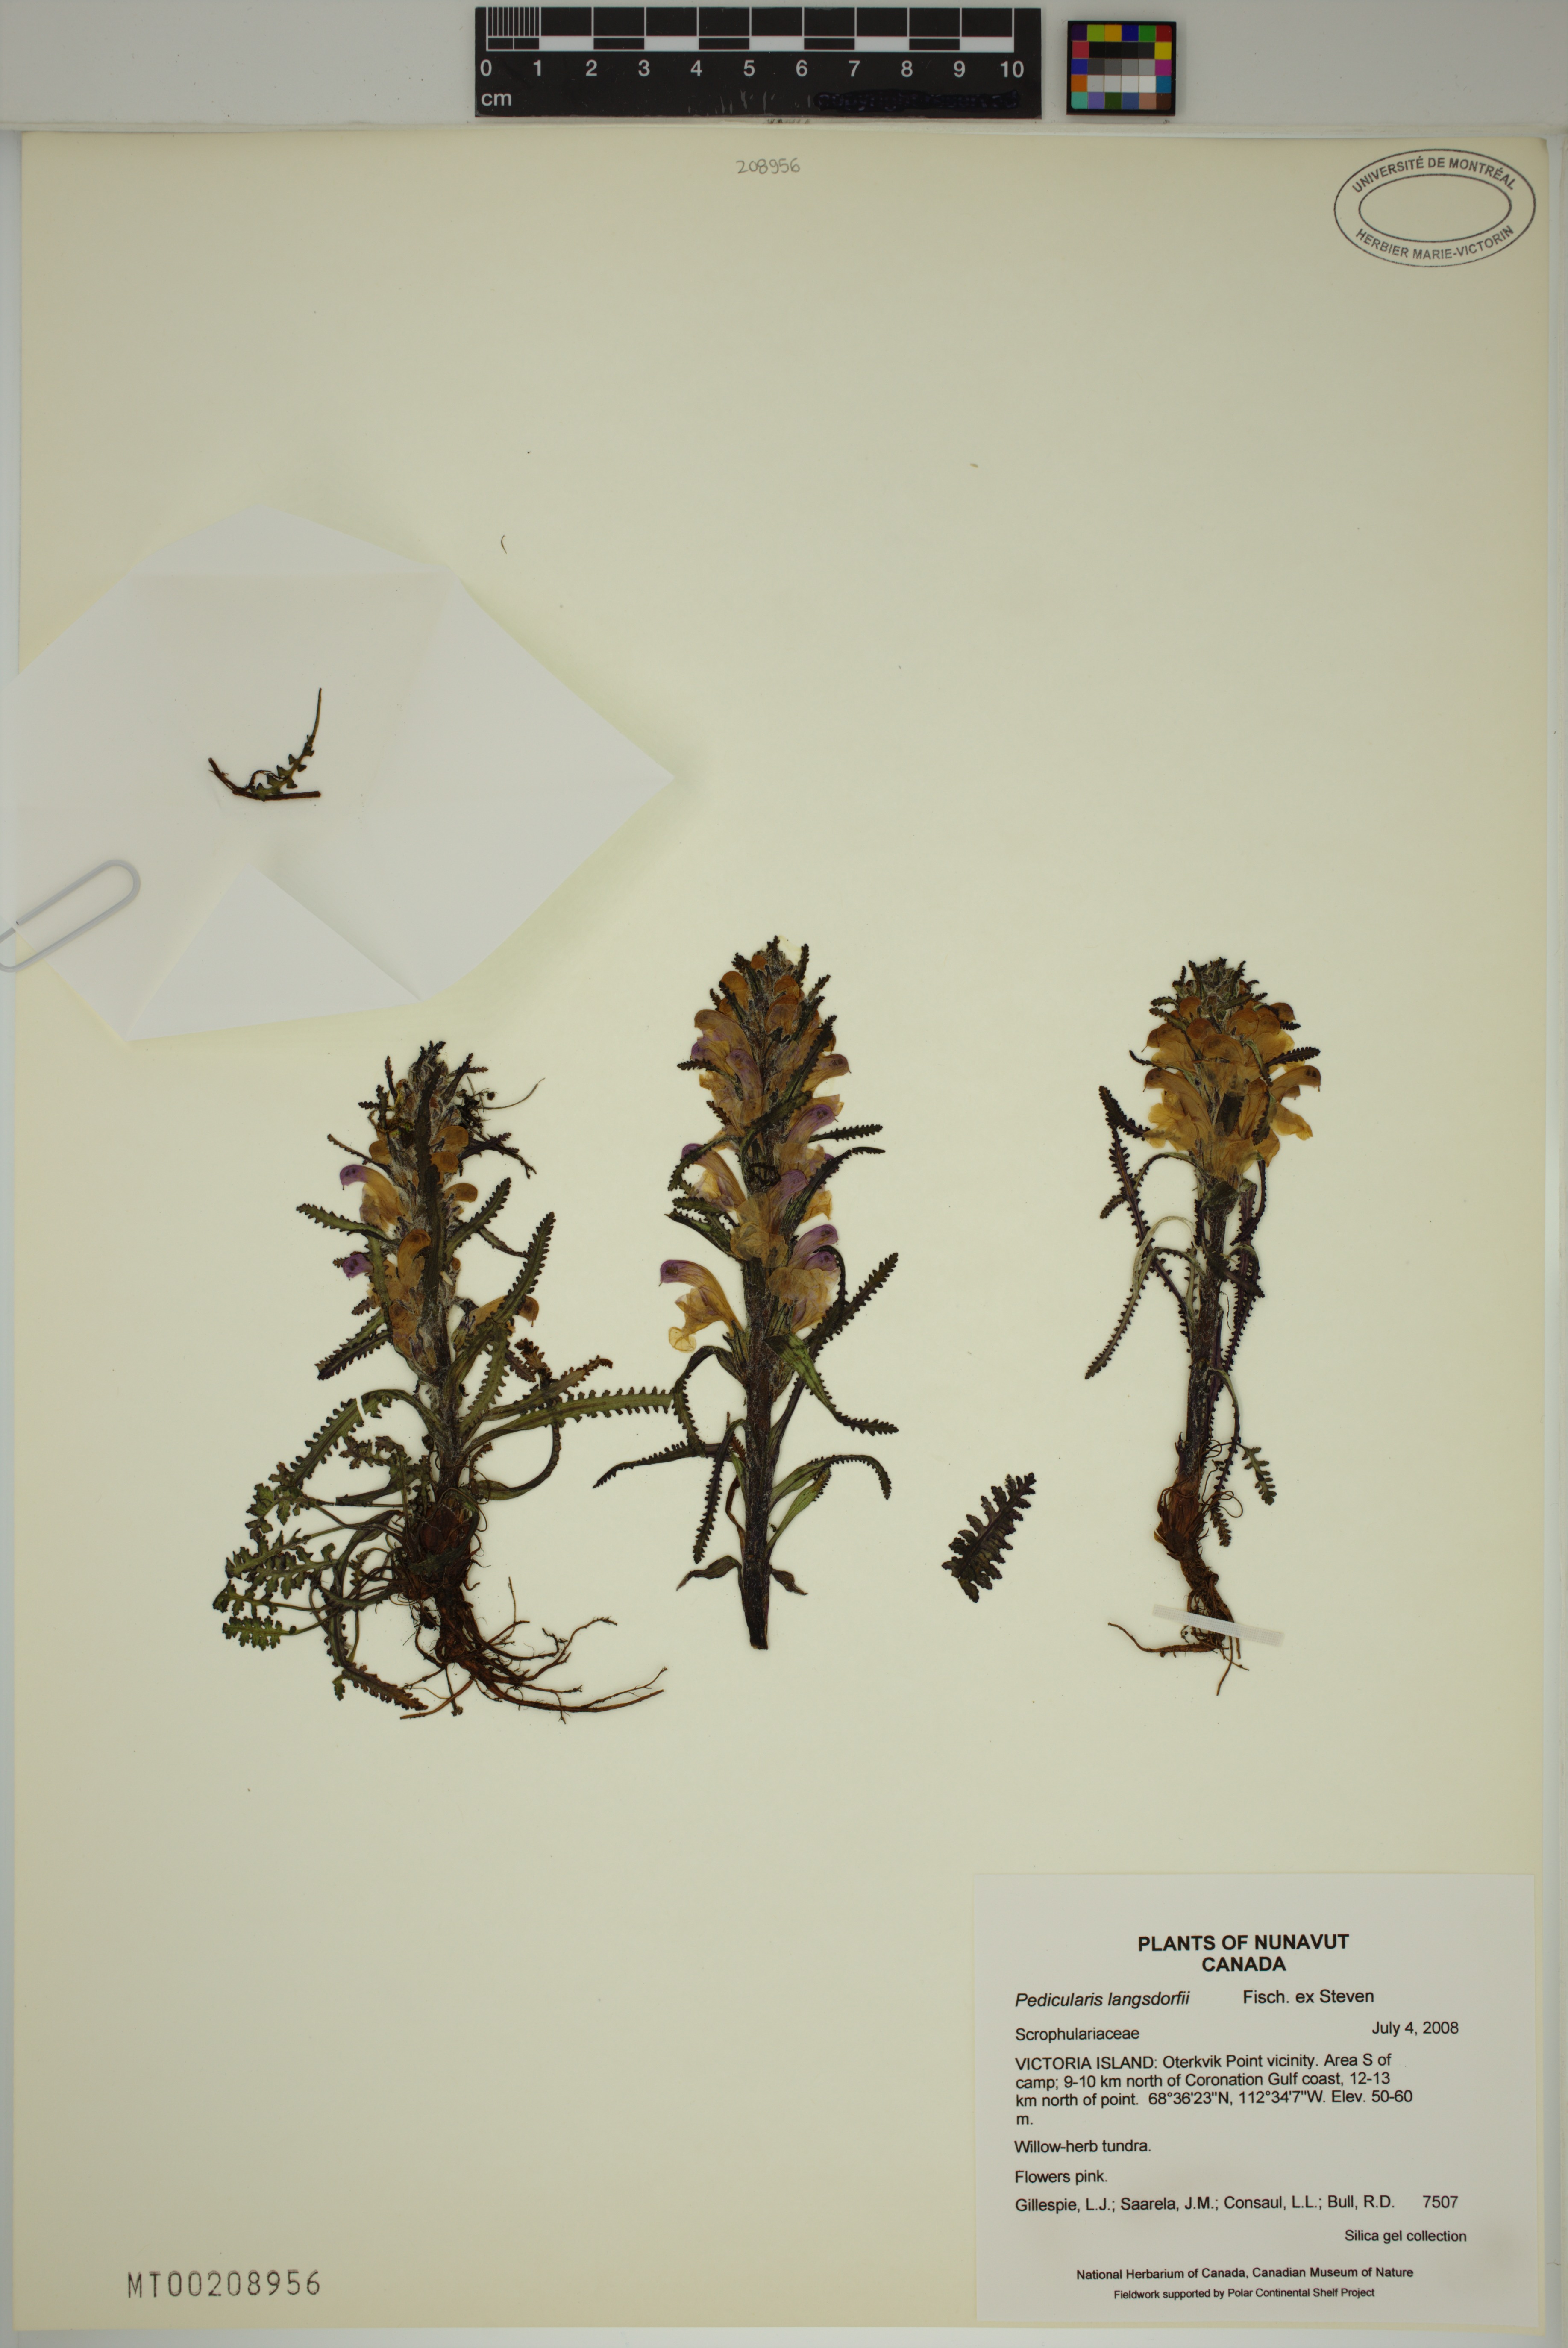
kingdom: Plantae
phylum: Tracheophyta
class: Magnoliopsida
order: Lamiales
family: Orobanchaceae
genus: Pedicularis
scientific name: Pedicularis langsdorffii
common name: Langsdorff's lousewort
